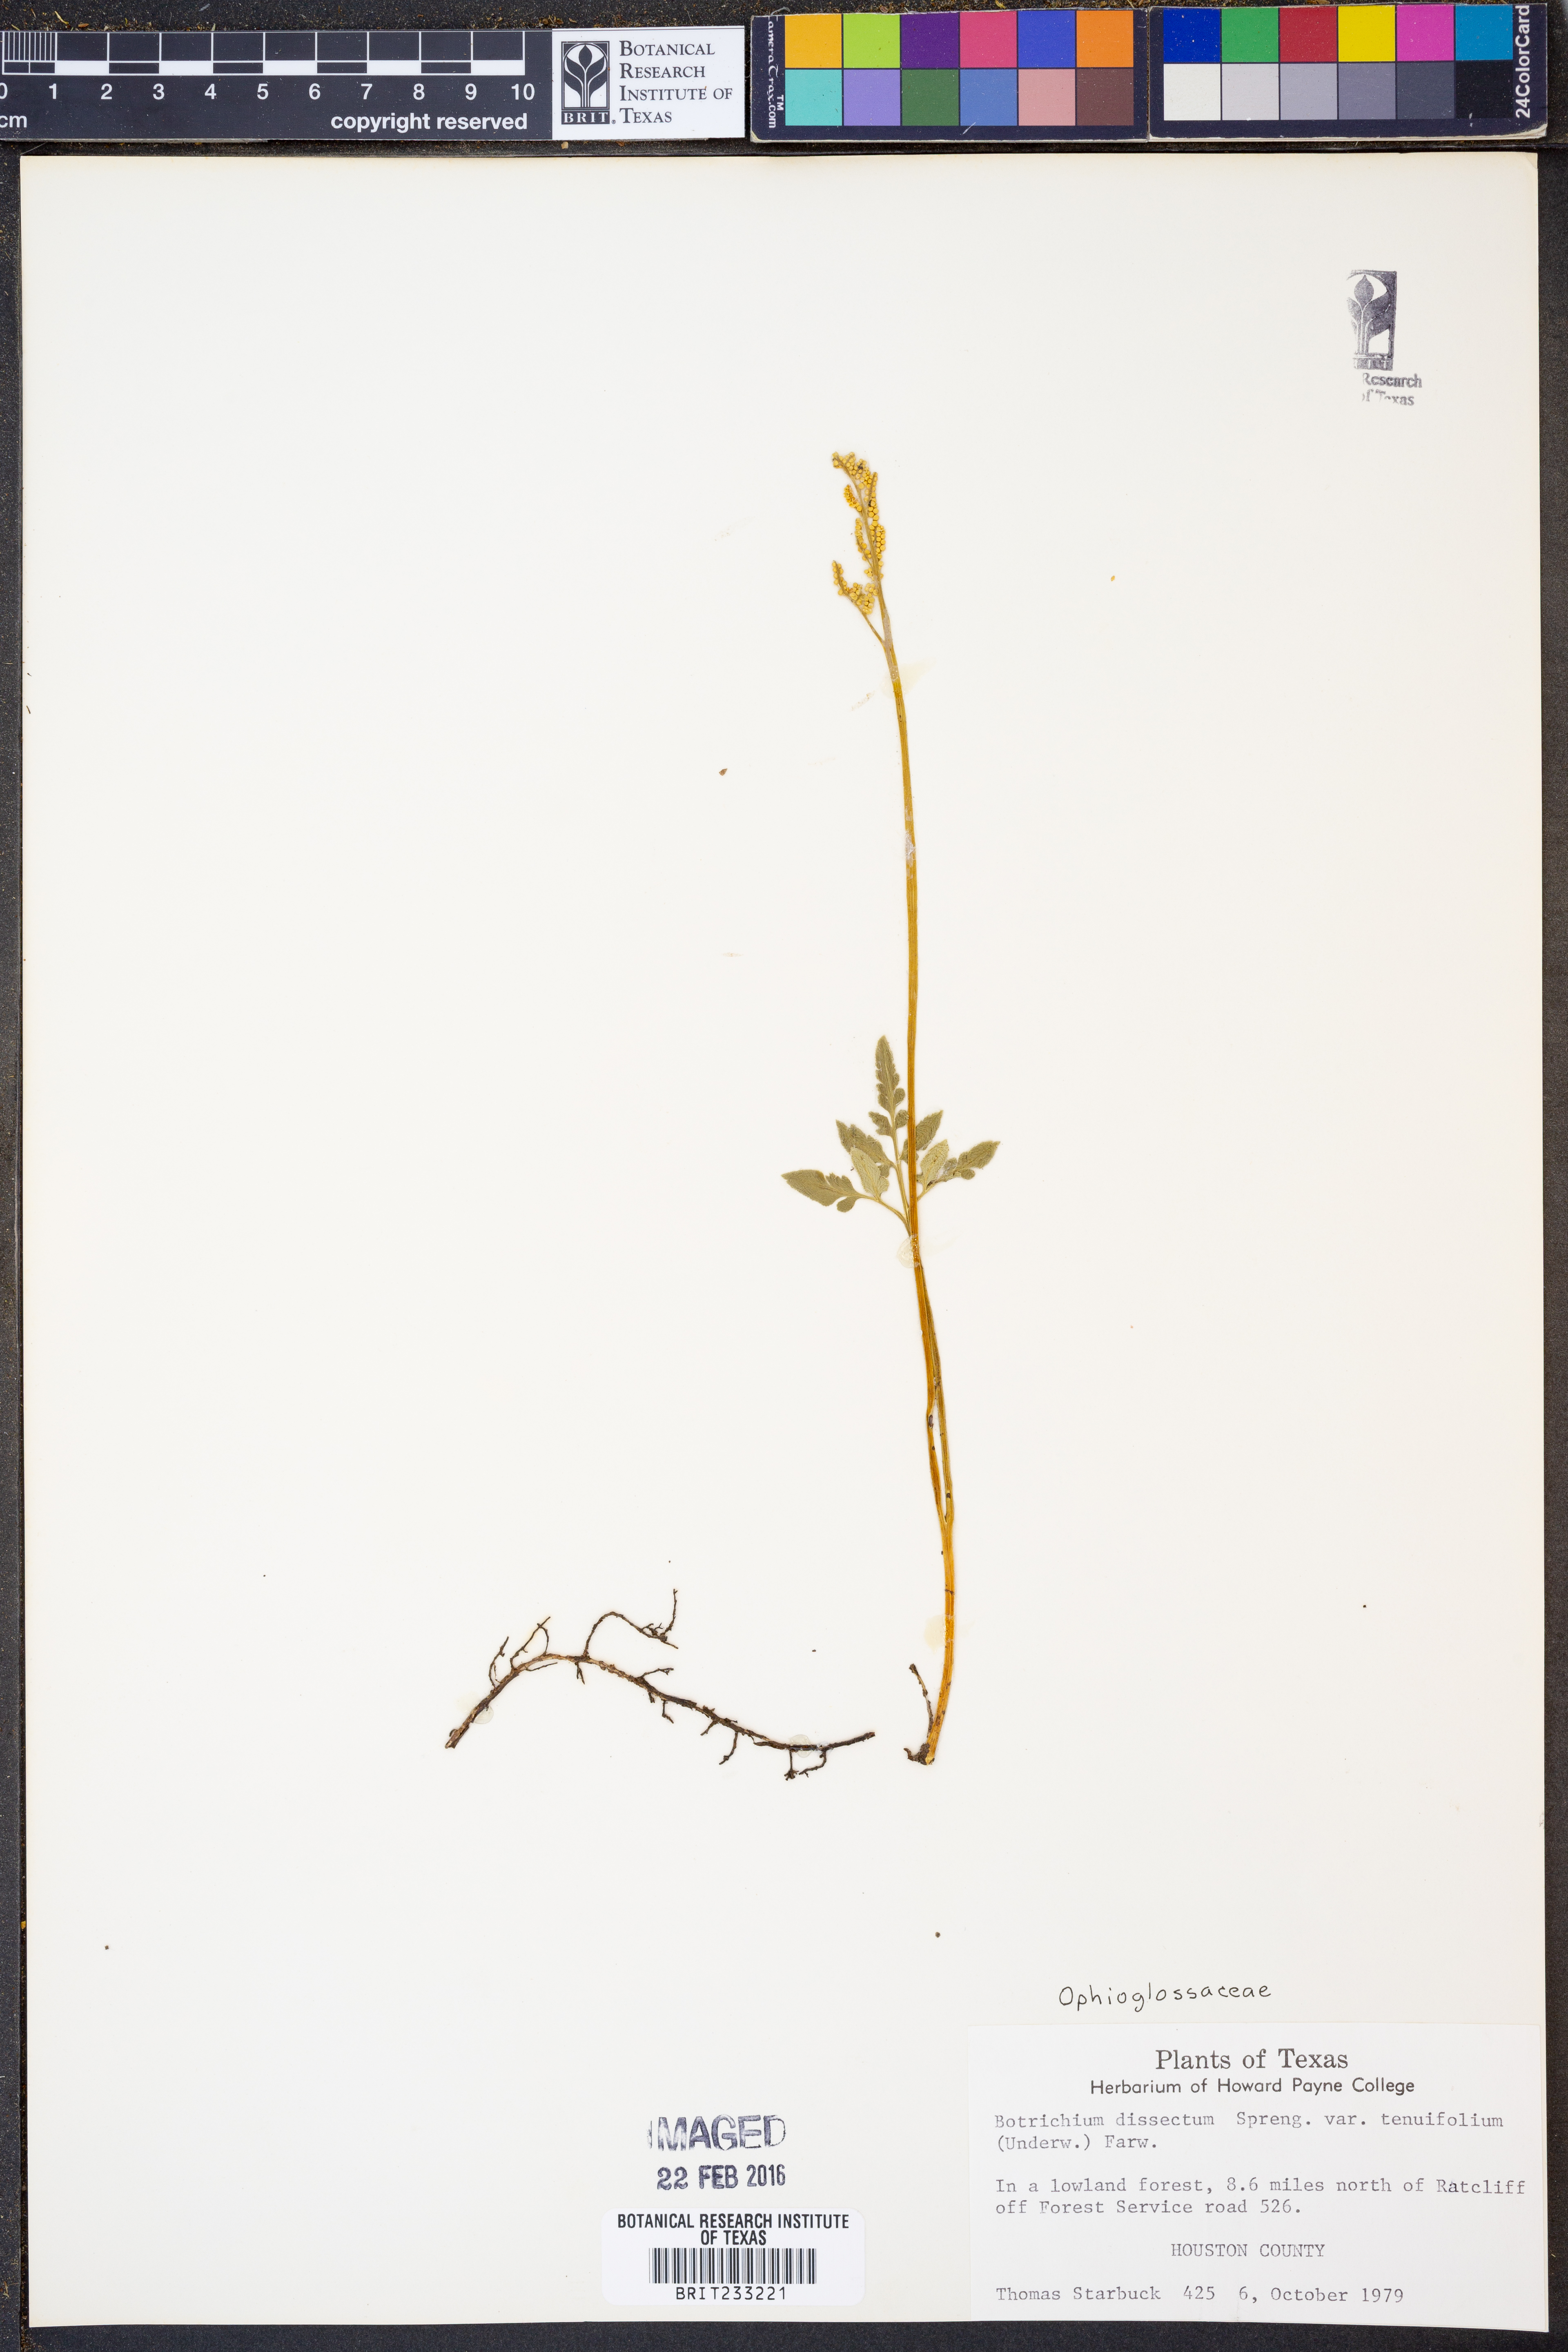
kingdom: Plantae
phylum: Tracheophyta
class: Polypodiopsida
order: Ophioglossales
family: Ophioglossaceae
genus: Sceptridium
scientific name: Sceptridium biternatum
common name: Sparse-lobed grapefern
